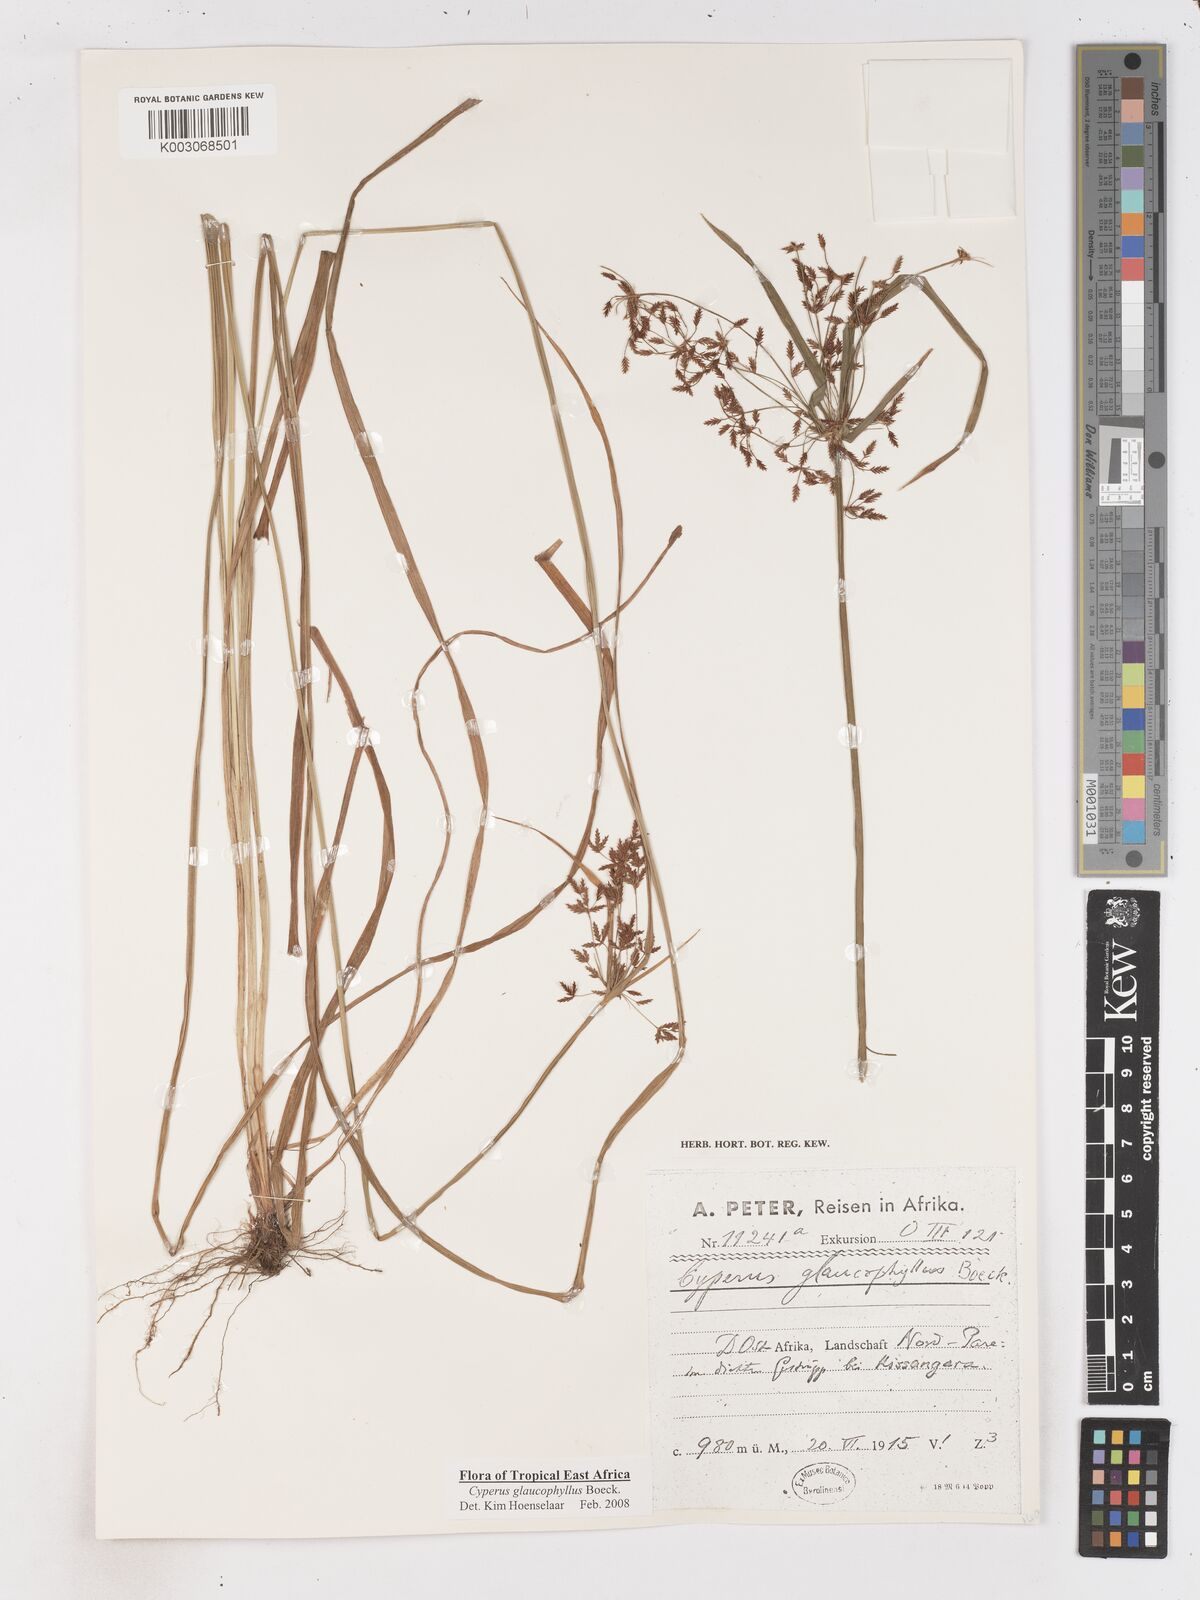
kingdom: Plantae
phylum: Tracheophyta
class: Liliopsida
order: Poales
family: Cyperaceae
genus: Cyperus
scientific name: Cyperus glaucophyllus
